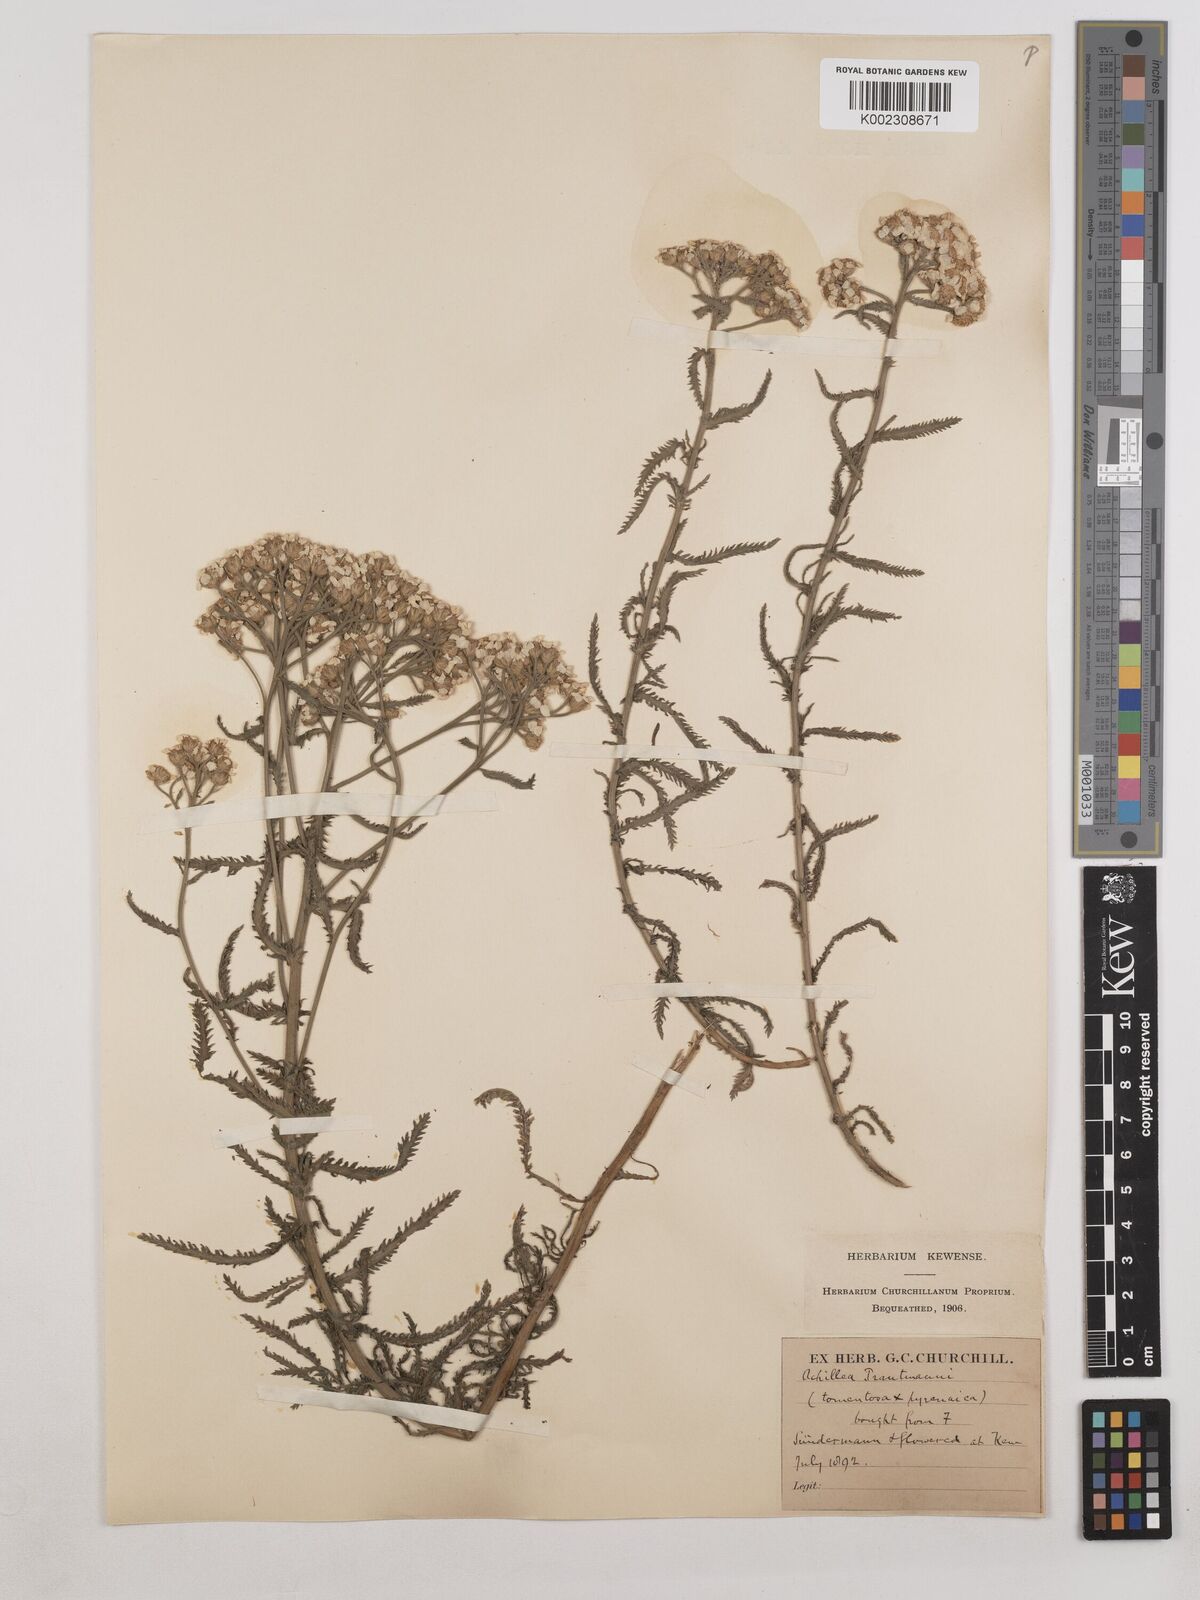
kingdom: Plantae
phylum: Tracheophyta
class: Magnoliopsida
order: Asterales
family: Asteraceae
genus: Achillea
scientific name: Achillea tomentosa
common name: Yellow milfoil
